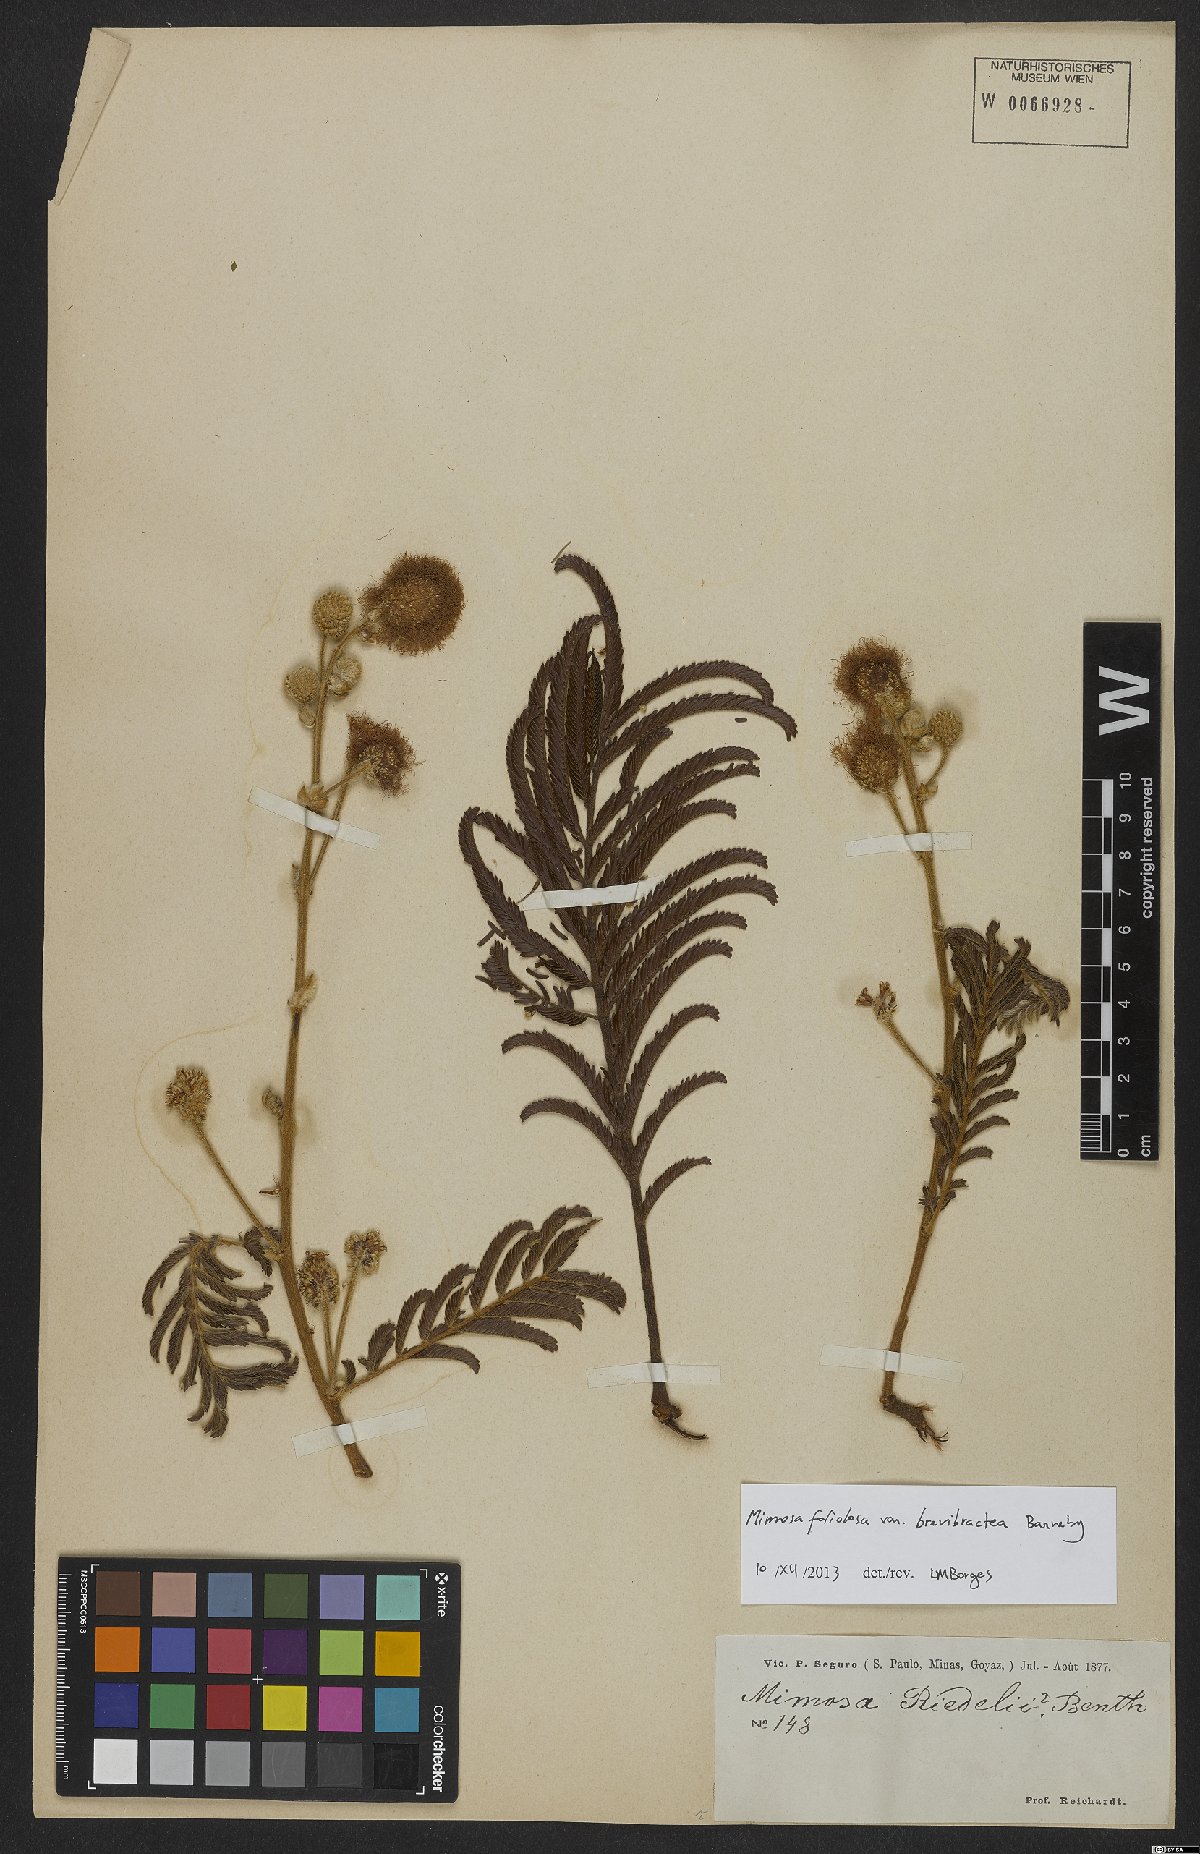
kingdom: Plantae
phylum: Tracheophyta
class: Magnoliopsida
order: Fabales
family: Fabaceae
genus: Mimosa
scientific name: Mimosa riedelii
